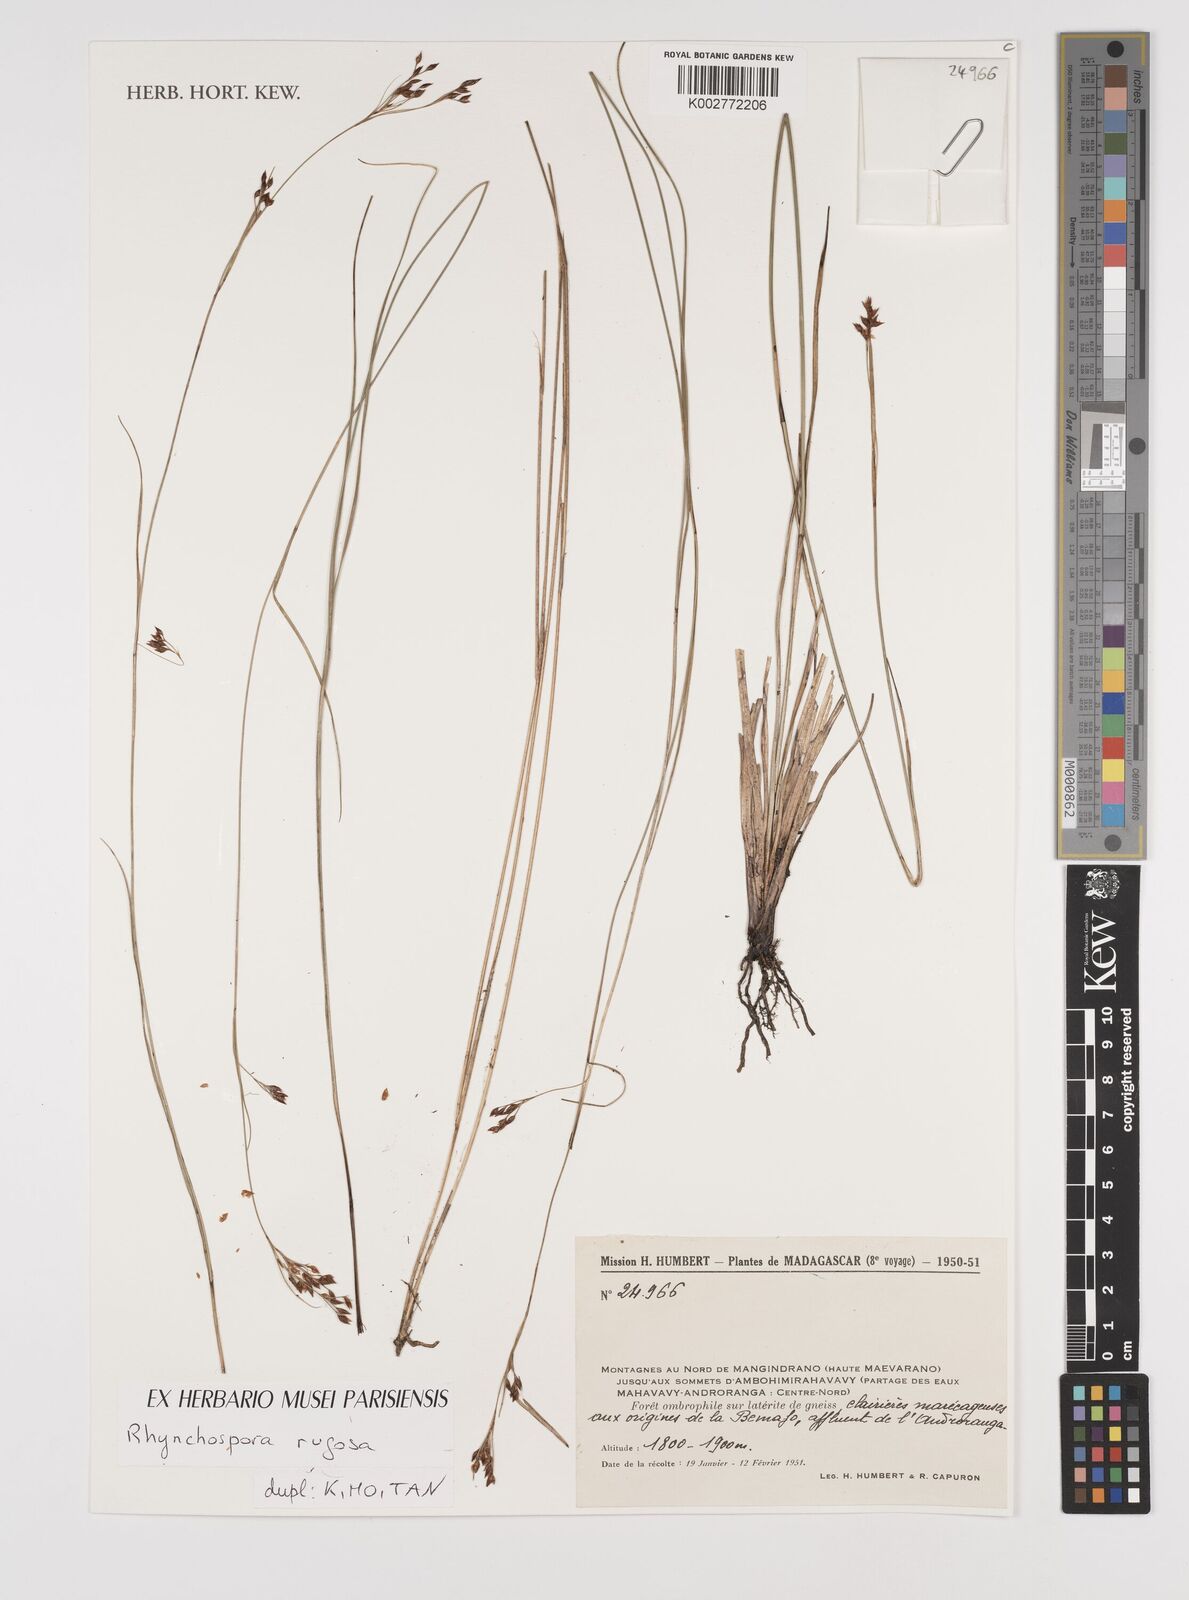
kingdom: Plantae
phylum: Tracheophyta
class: Liliopsida
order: Poales
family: Cyperaceae
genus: Rhynchospora
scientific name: Rhynchospora rugosa
